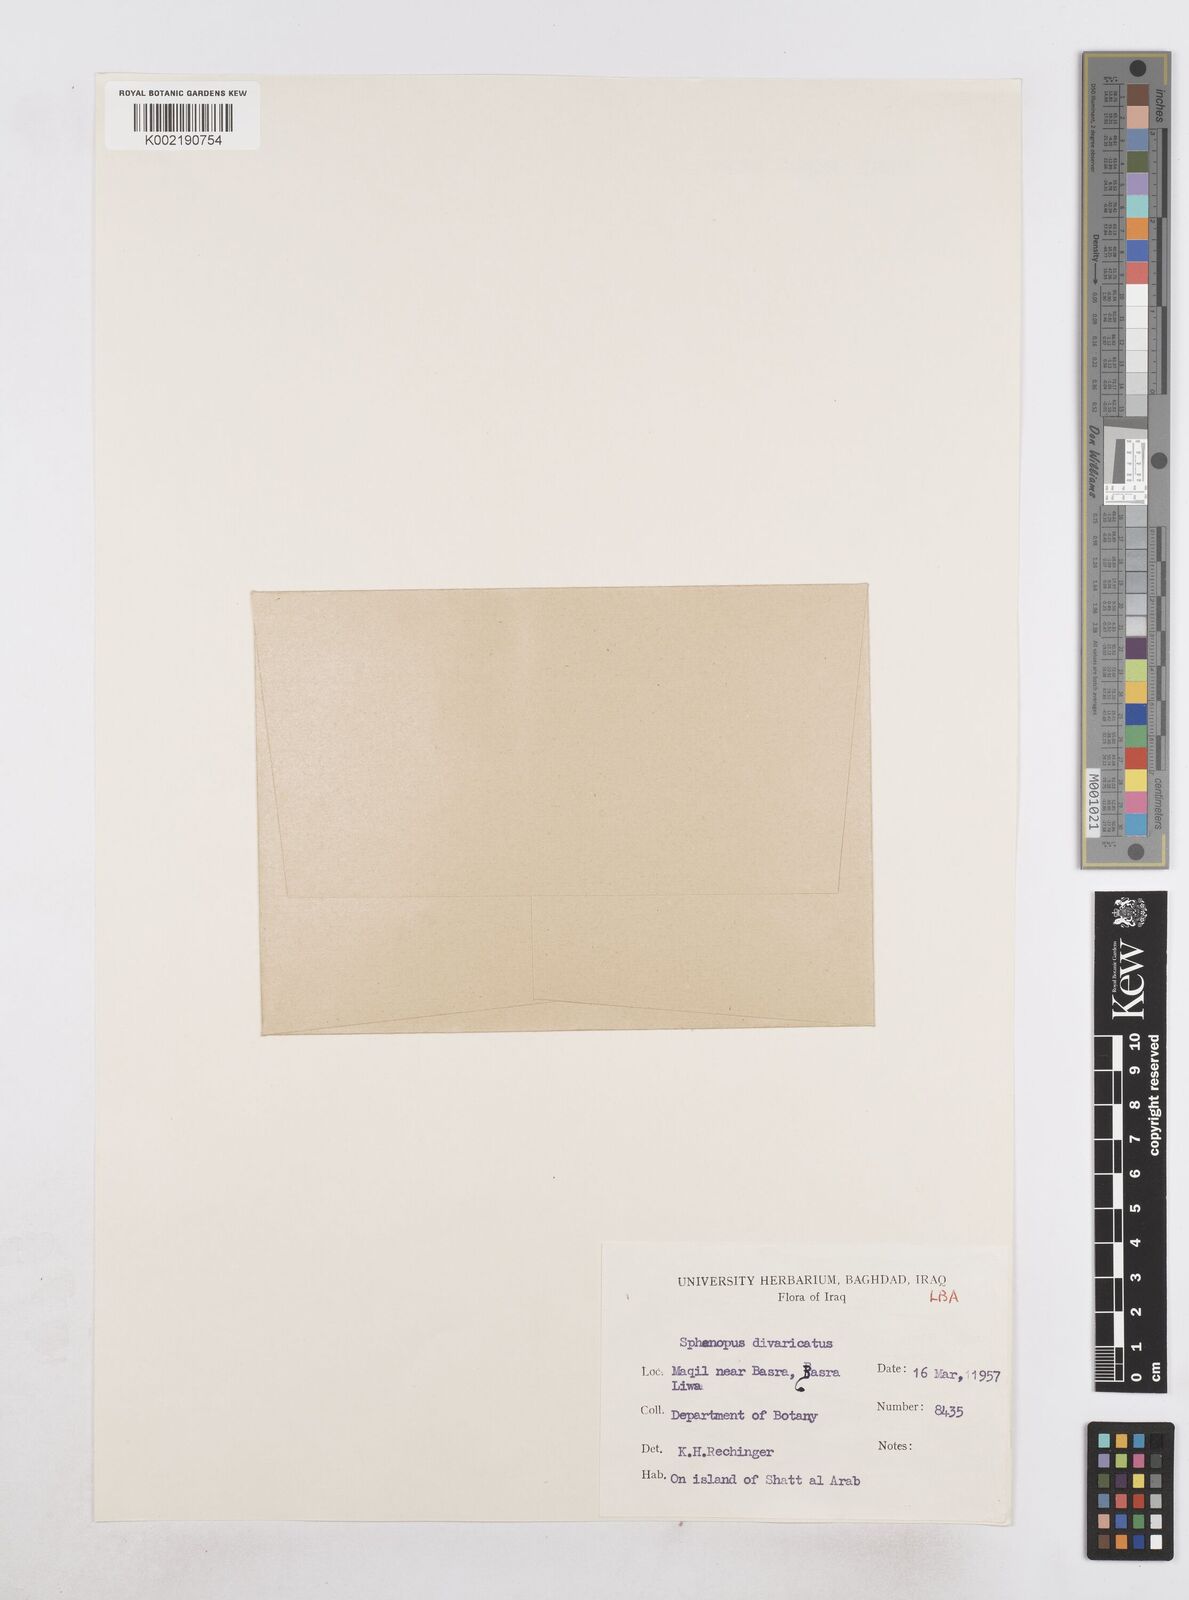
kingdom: Plantae
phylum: Tracheophyta
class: Liliopsida
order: Poales
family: Poaceae
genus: Sphenopus
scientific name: Sphenopus divaricatus
